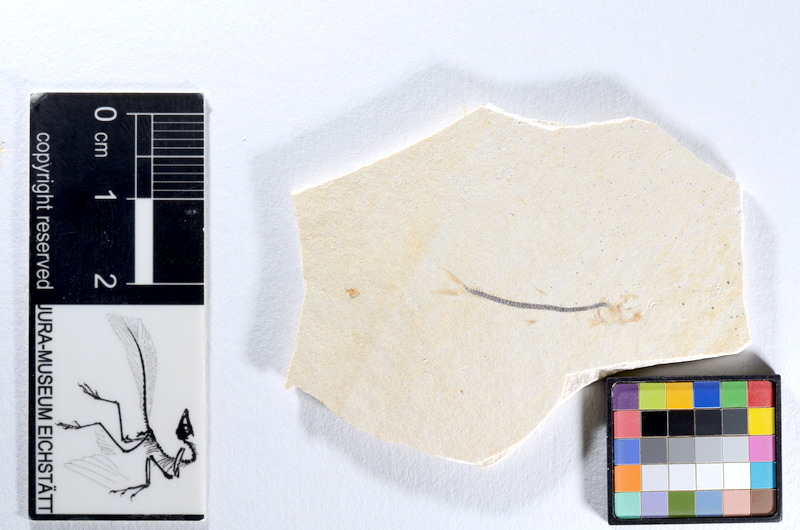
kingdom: Animalia
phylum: Chordata
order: Salmoniformes
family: Orthogonikleithridae
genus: Orthogonikleithrus
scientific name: Orthogonikleithrus hoelli
